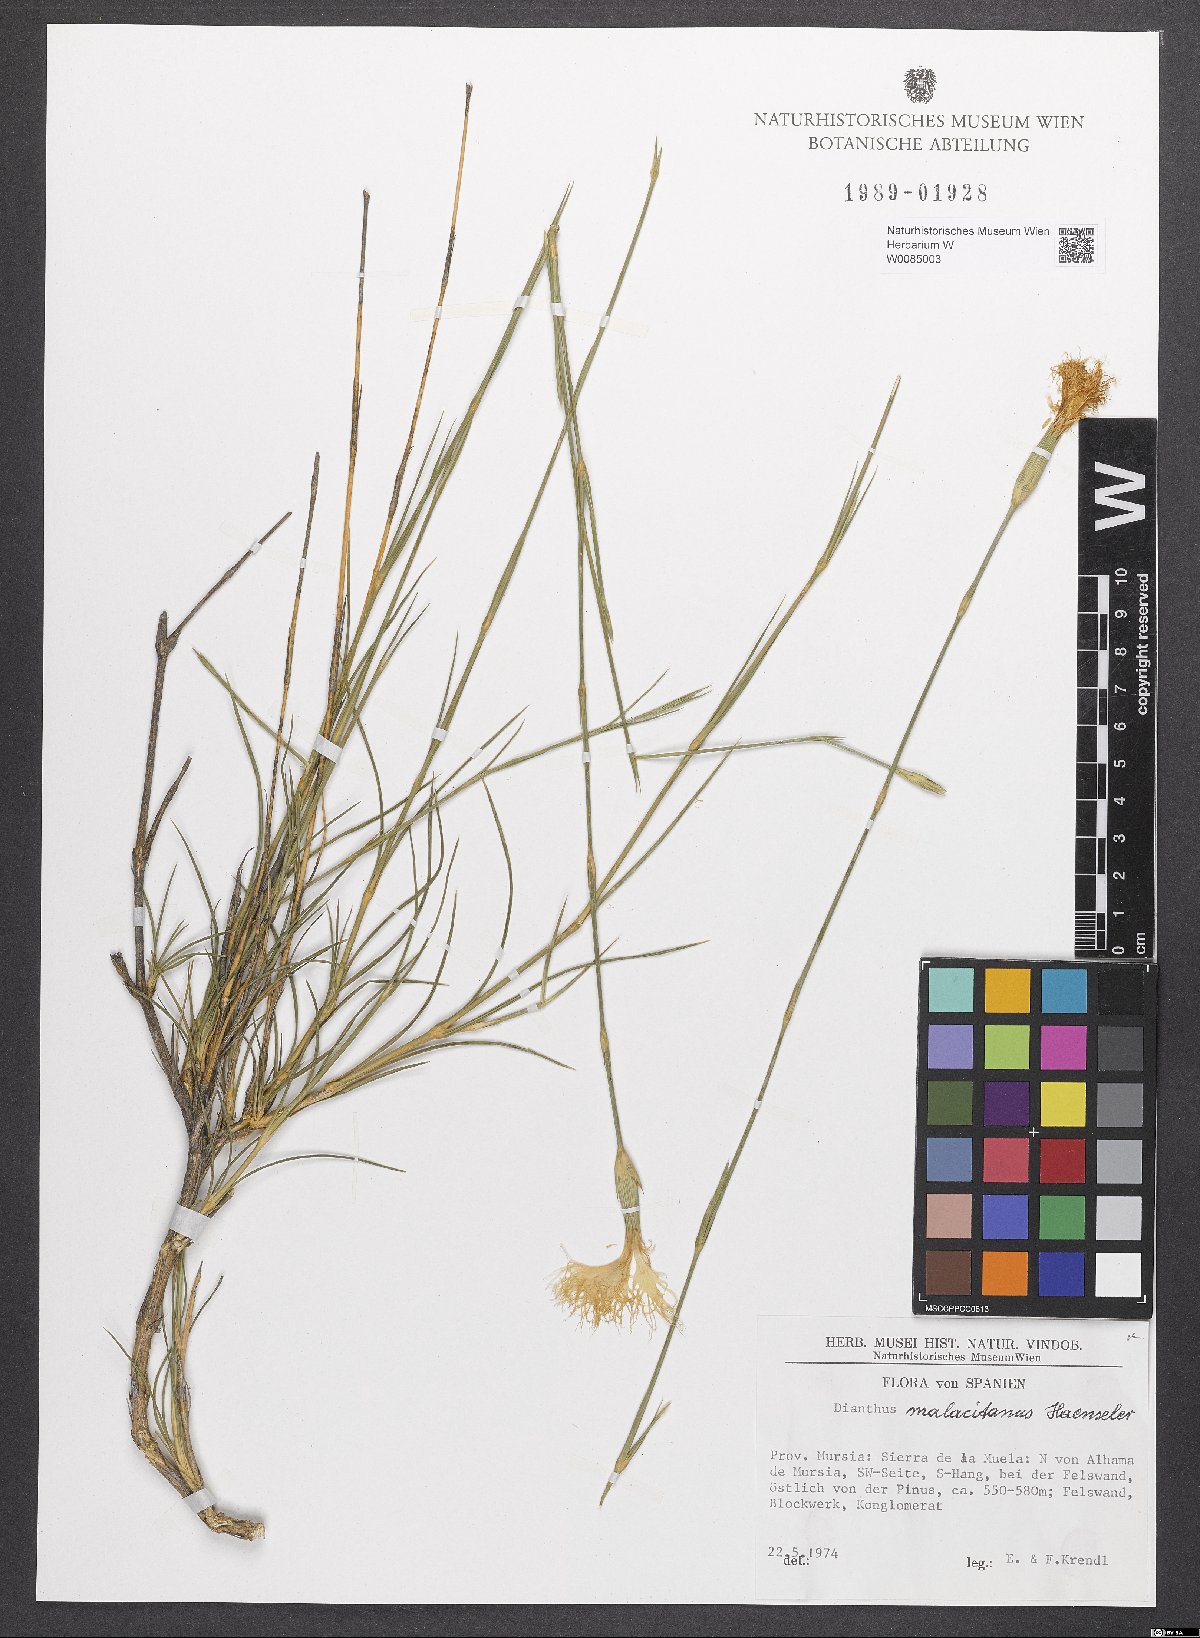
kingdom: Plantae
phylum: Tracheophyta
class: Magnoliopsida
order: Caryophyllales
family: Caryophyllaceae
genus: Dianthus
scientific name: Dianthus broteri
